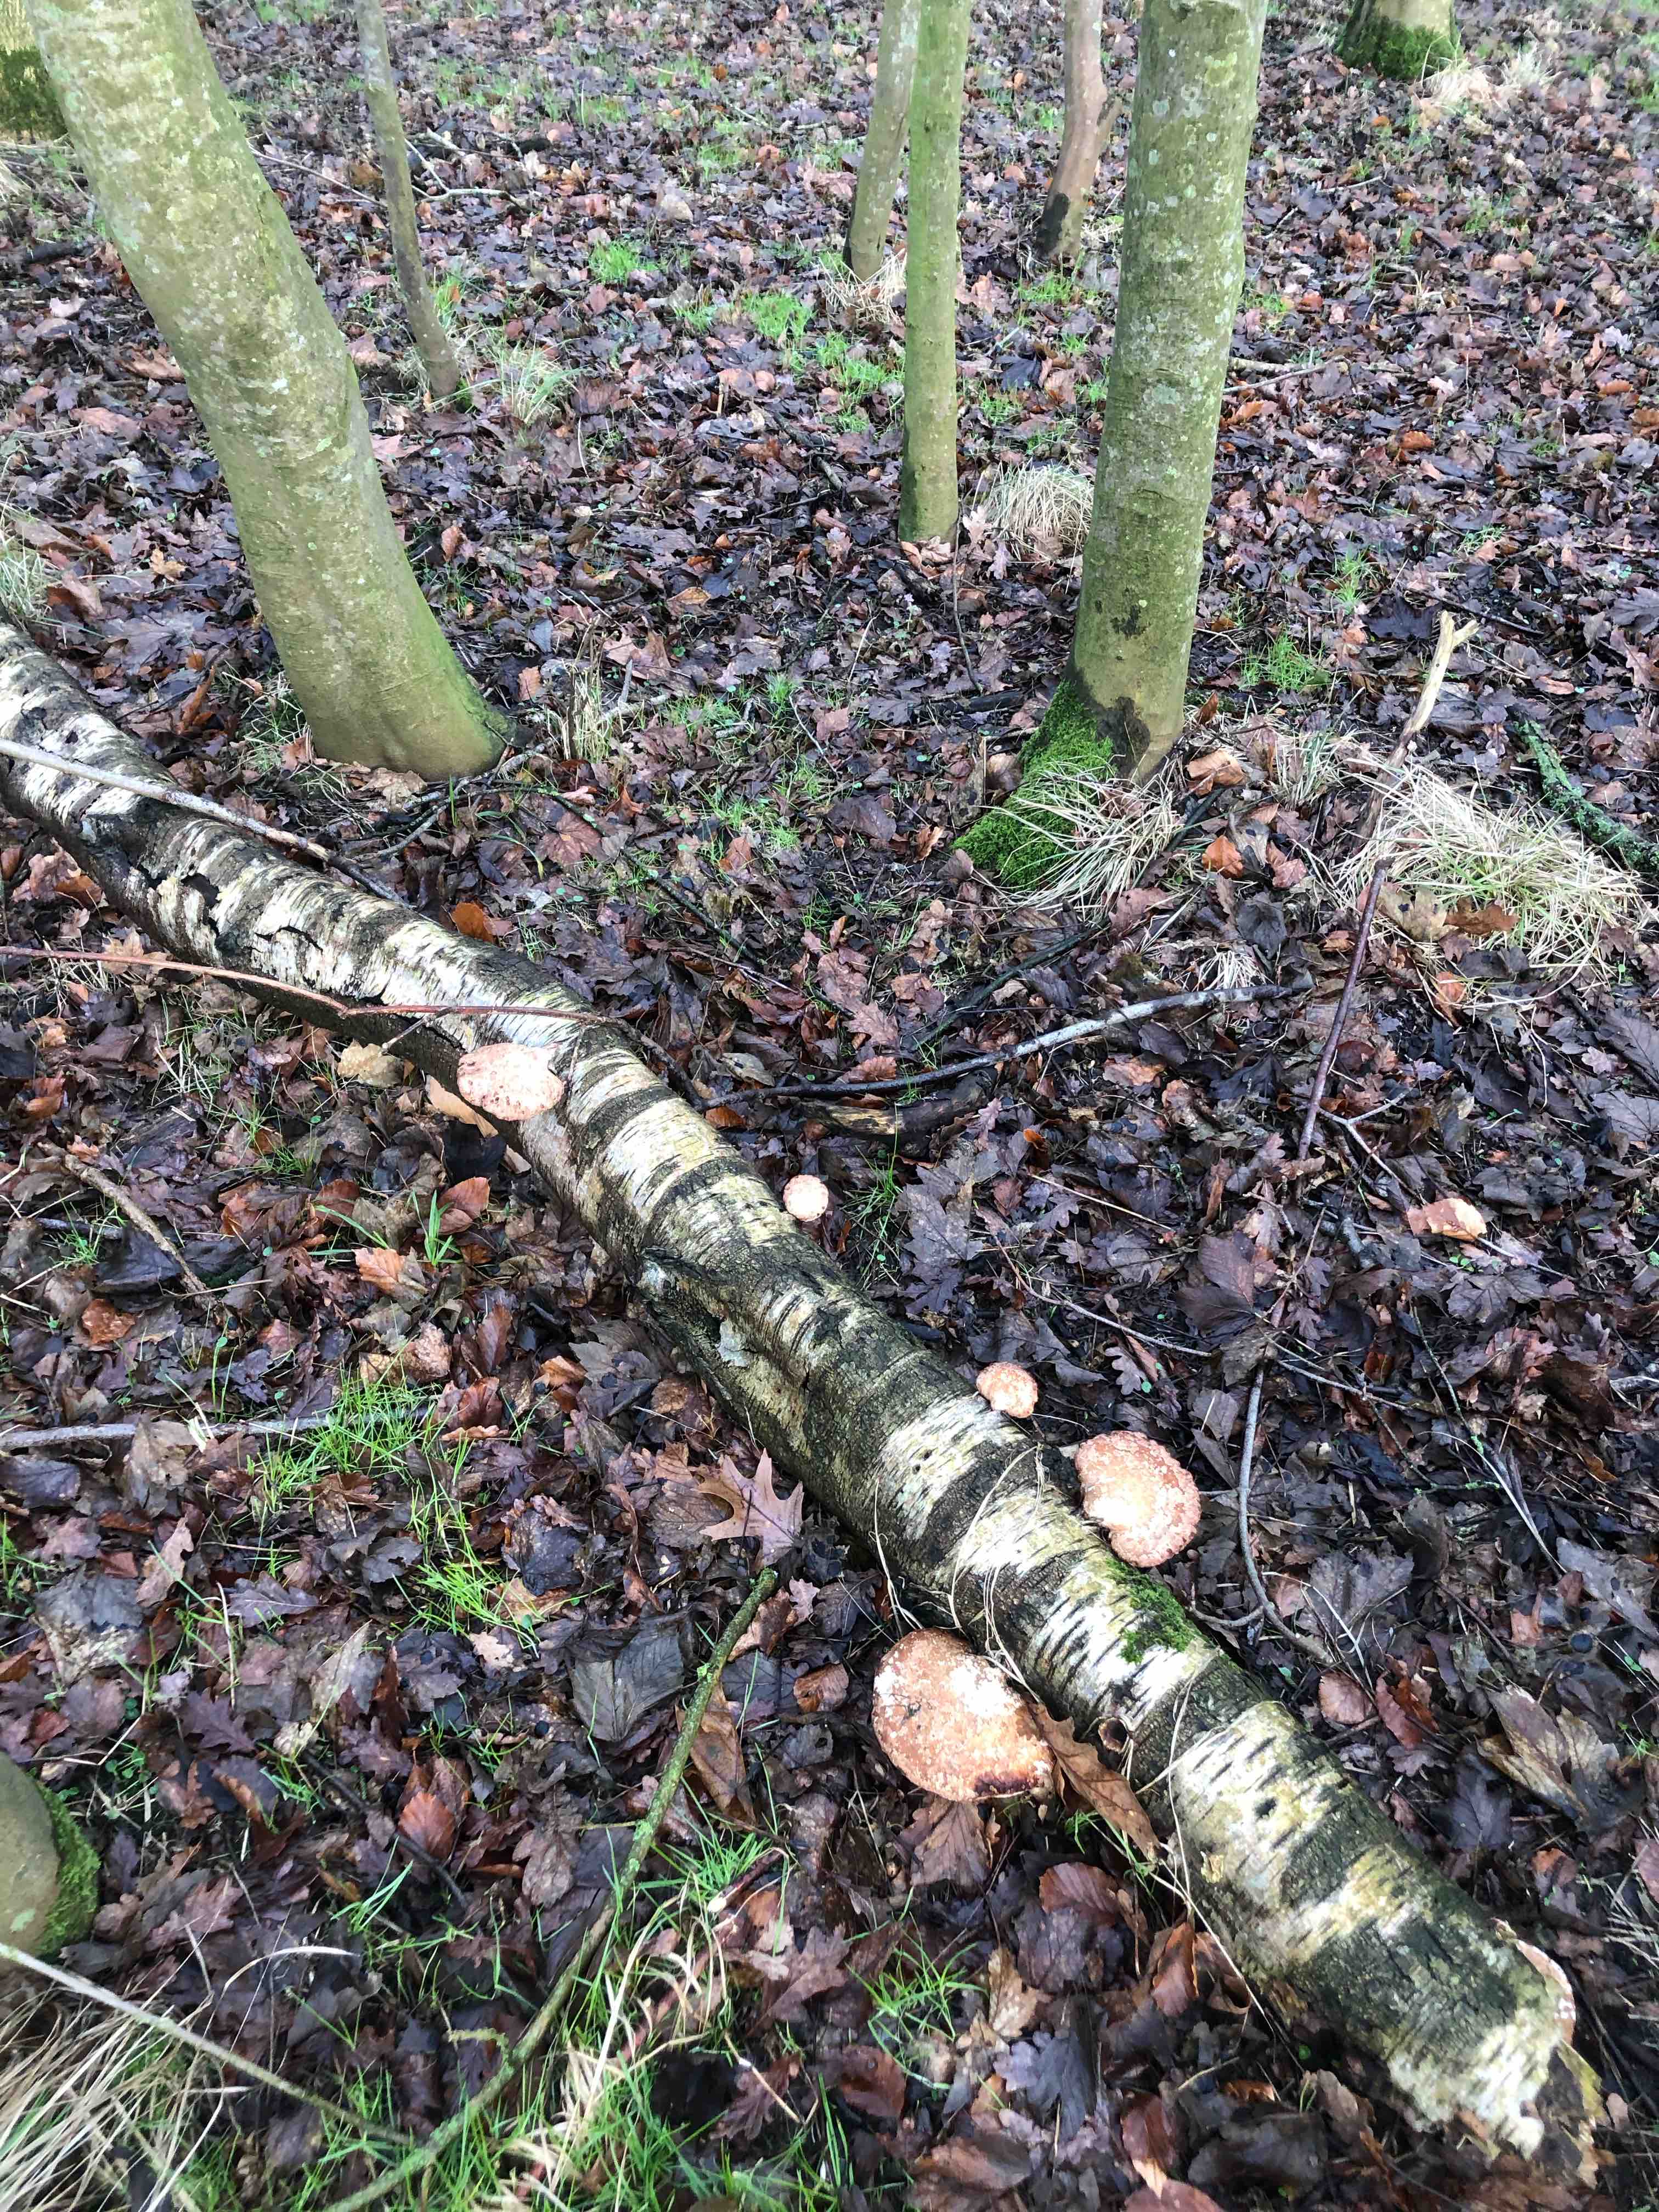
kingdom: Fungi
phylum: Basidiomycota
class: Agaricomycetes
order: Polyporales
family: Fomitopsidaceae
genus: Fomitopsis
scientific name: Fomitopsis betulina
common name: birkeporesvamp
